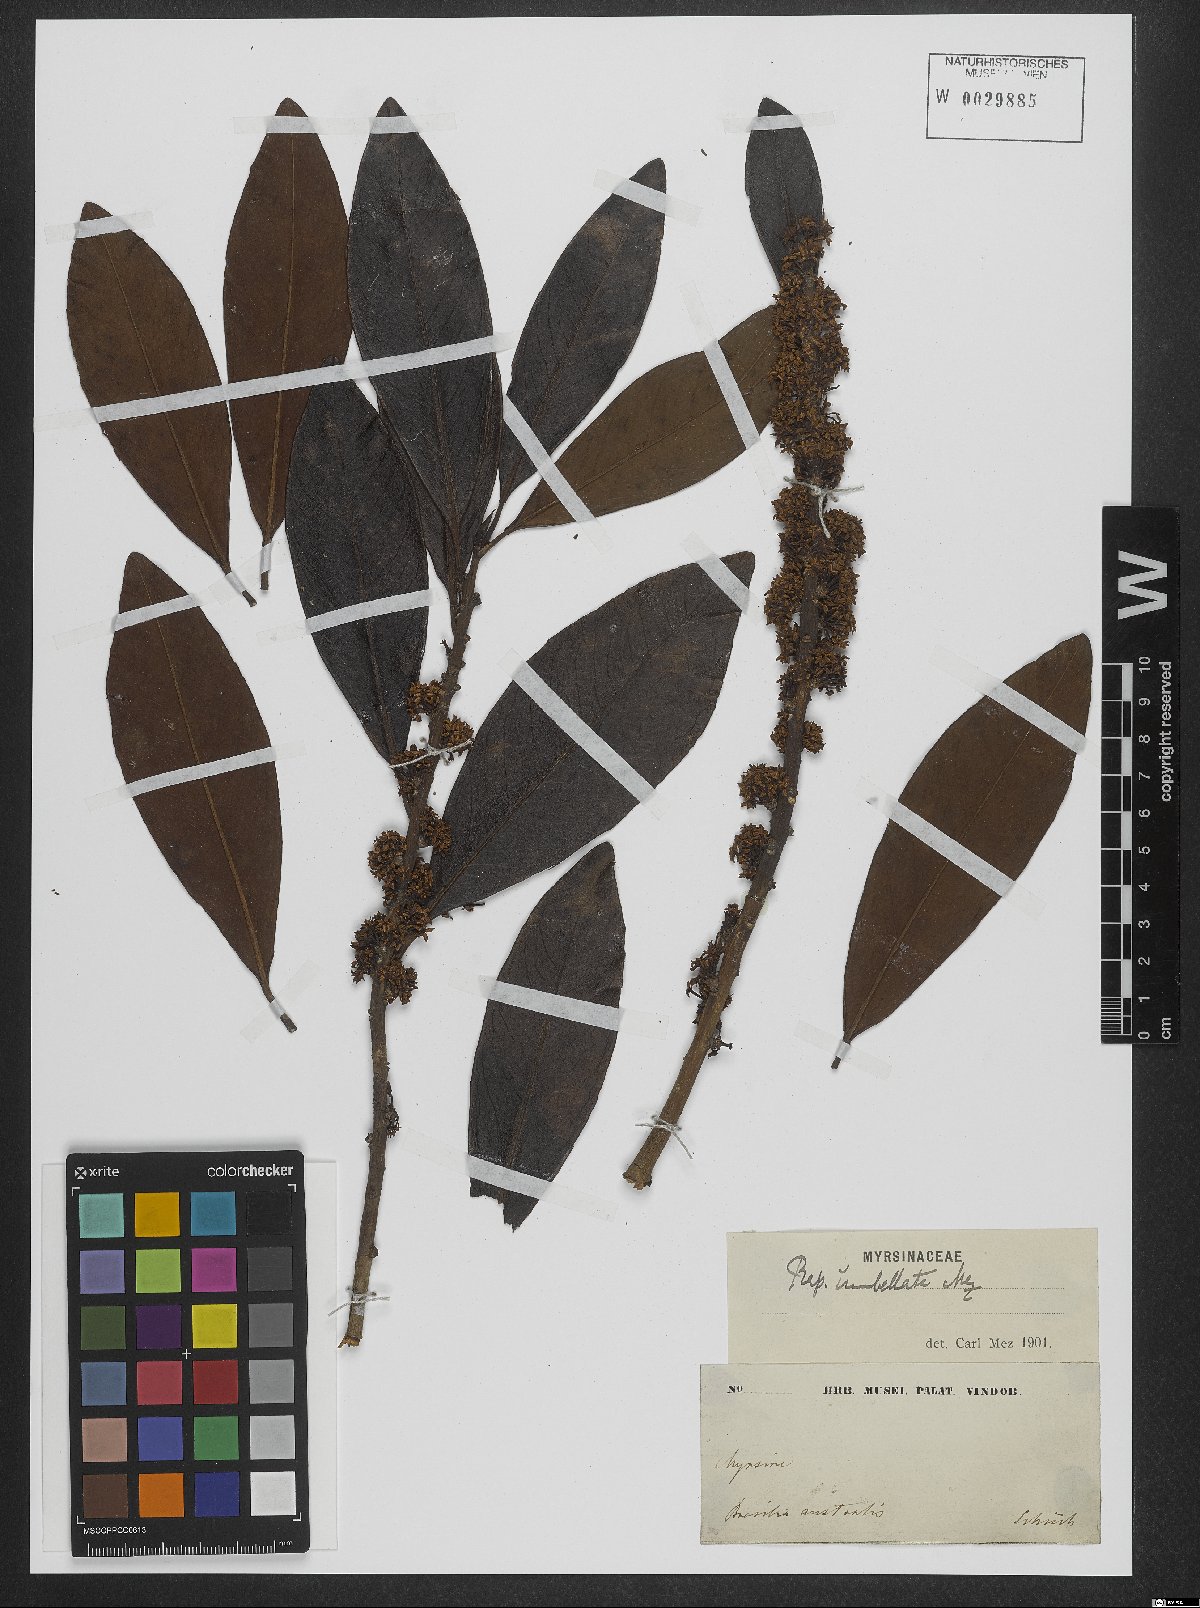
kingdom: Plantae
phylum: Tracheophyta
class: Magnoliopsida
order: Ericales
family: Primulaceae
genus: Myrsine
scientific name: Myrsine umbellata
